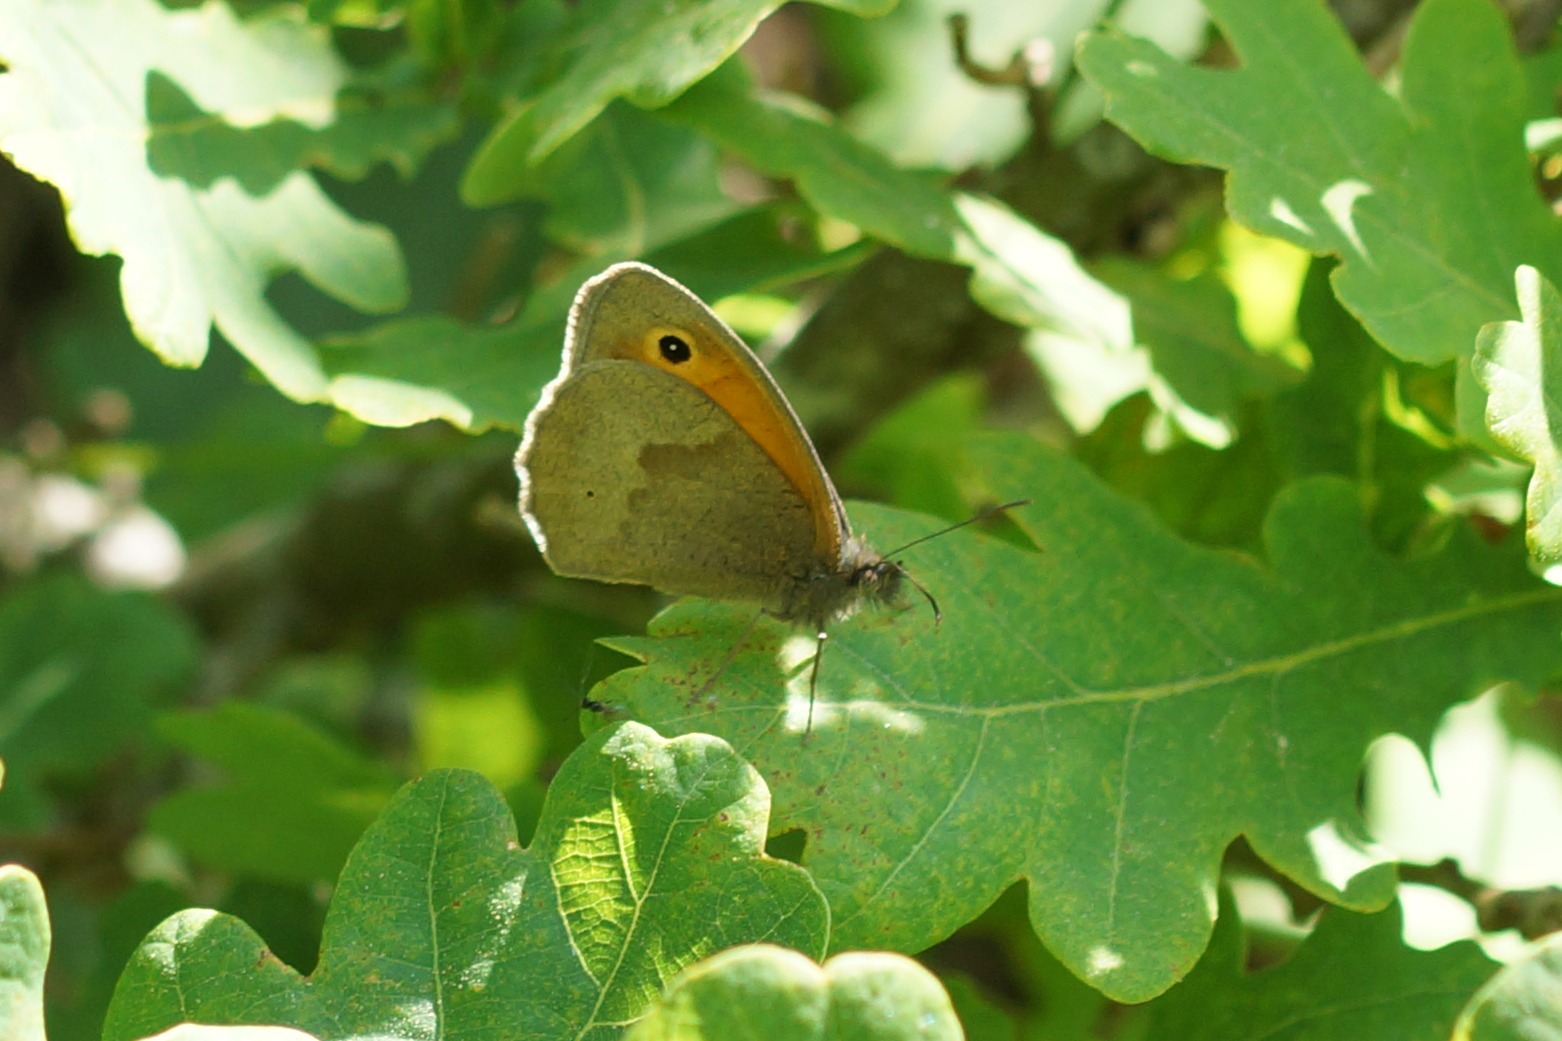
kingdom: Animalia
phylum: Arthropoda
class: Insecta
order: Lepidoptera
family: Nymphalidae
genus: Maniola
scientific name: Maniola jurtina
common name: Græsrandøje
